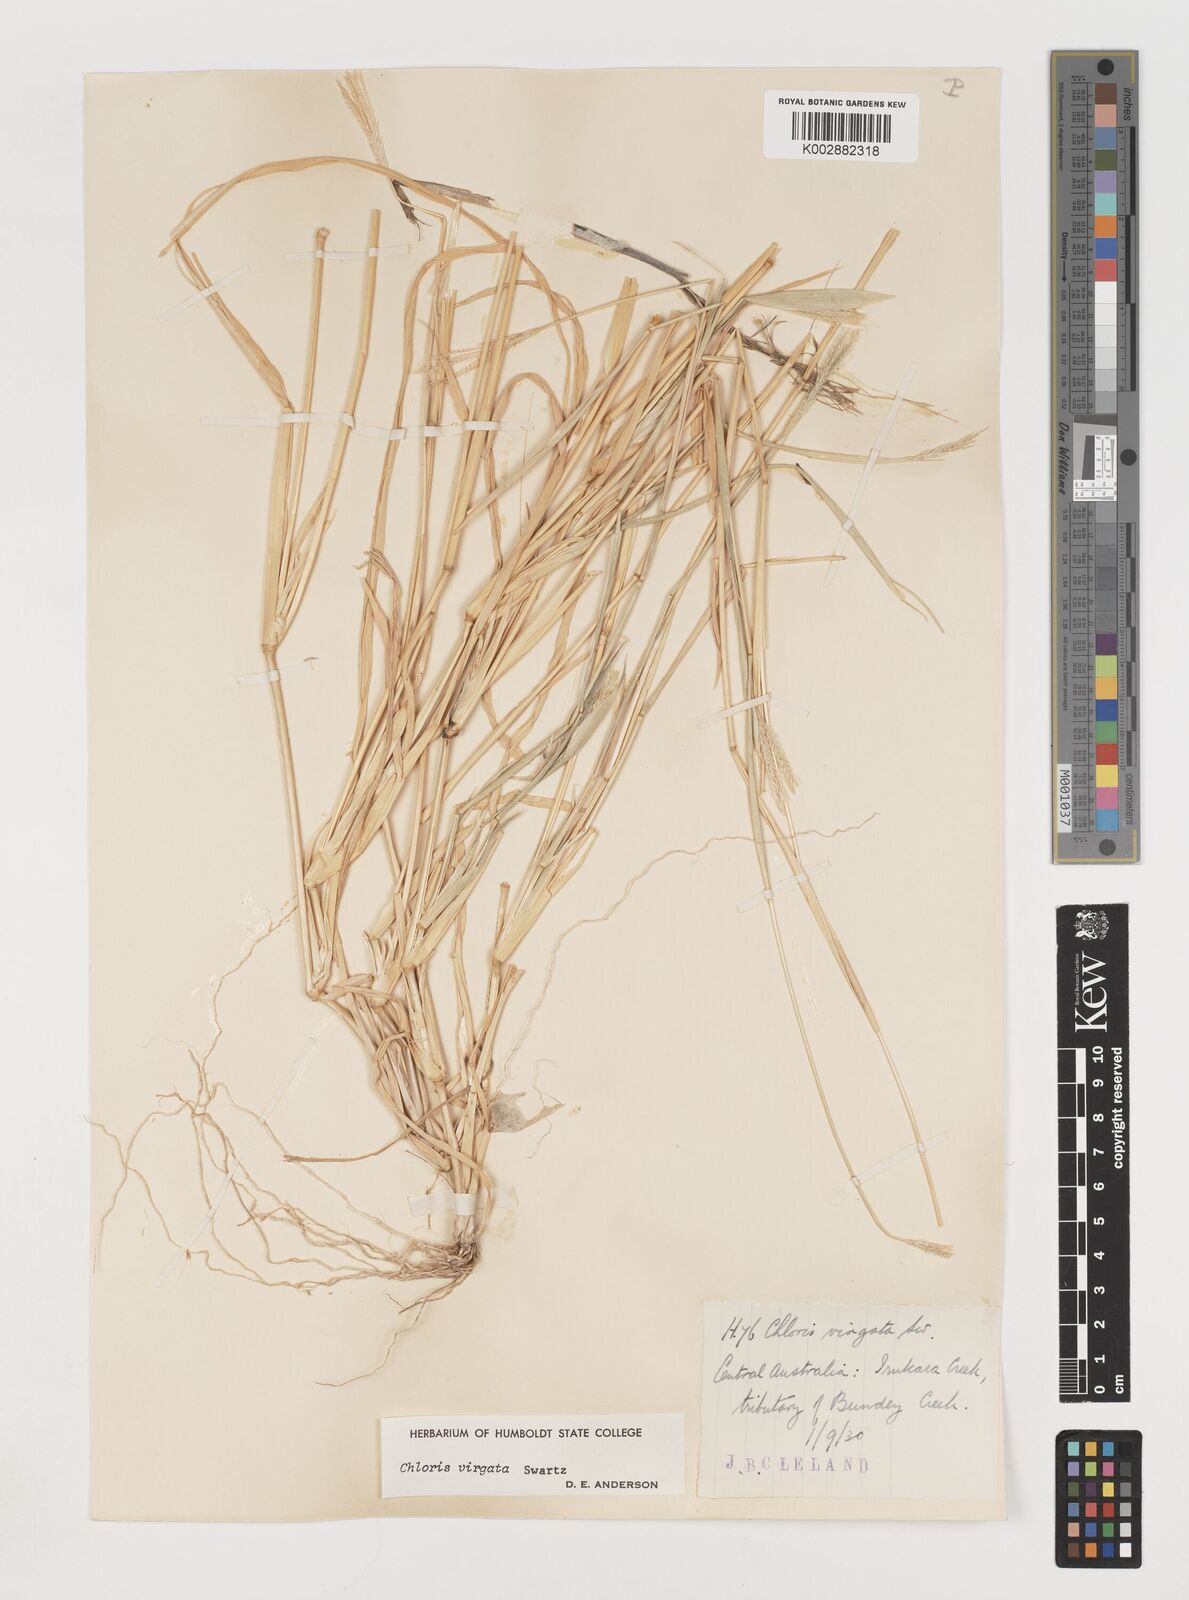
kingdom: Plantae
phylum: Tracheophyta
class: Liliopsida
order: Poales
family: Poaceae
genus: Chloris
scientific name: Chloris virgata
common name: Feathery rhodes-grass
